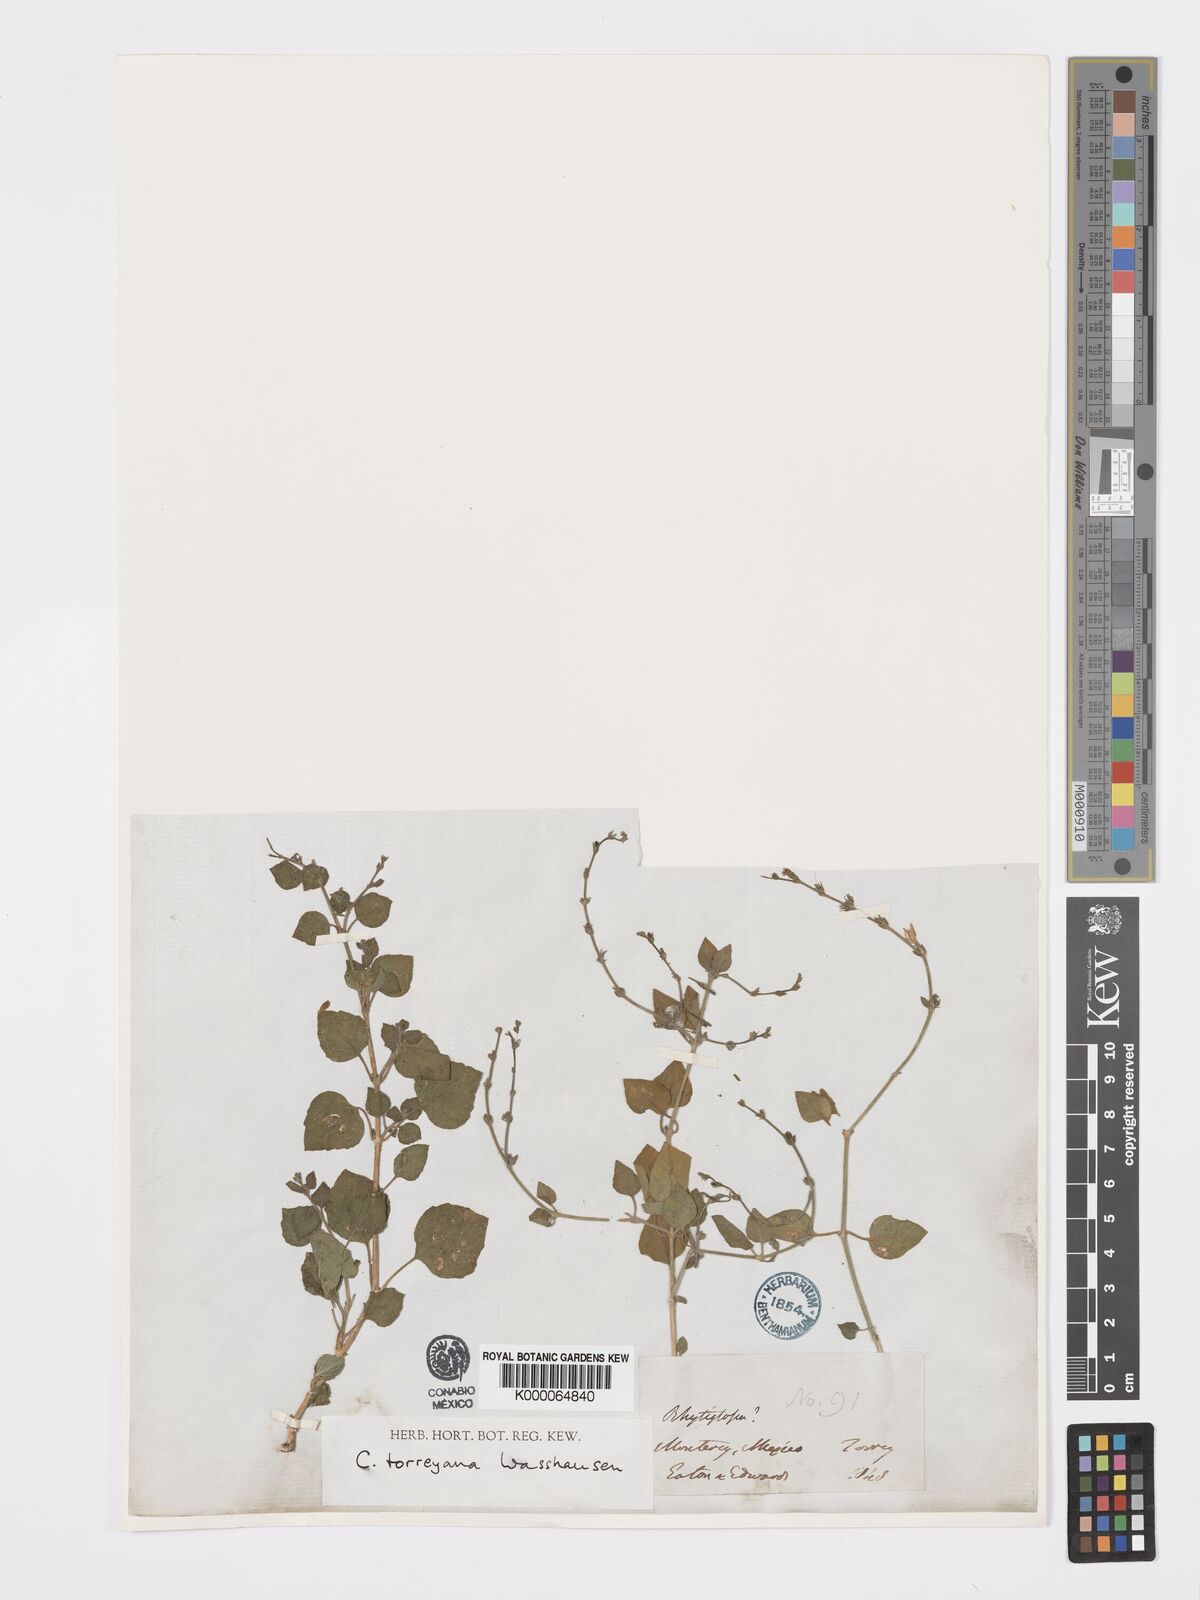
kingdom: Plantae
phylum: Tracheophyta
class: Magnoliopsida
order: Lamiales
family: Acanthaceae
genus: Carlowrightia
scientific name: Carlowrightia torreyana
